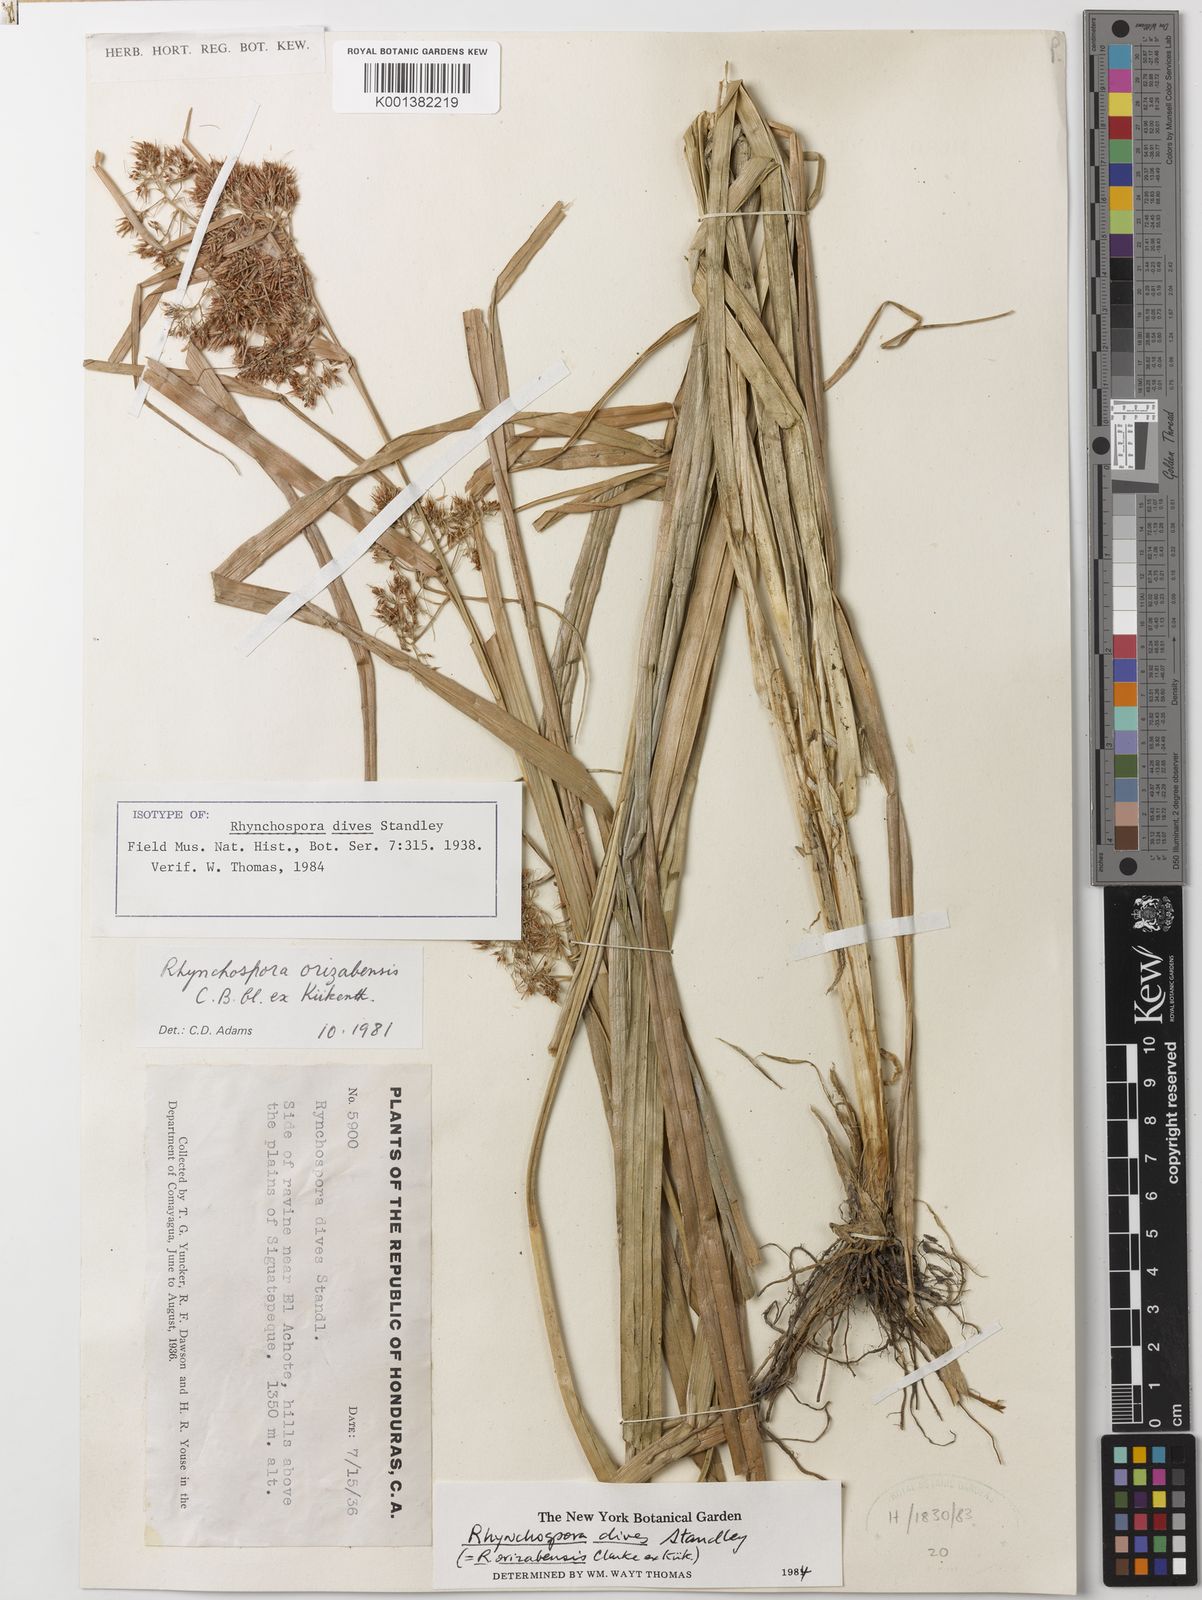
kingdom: Plantae
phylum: Tracheophyta
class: Liliopsida
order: Poales
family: Cyperaceae
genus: Rhynchospora
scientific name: Rhynchospora dives
